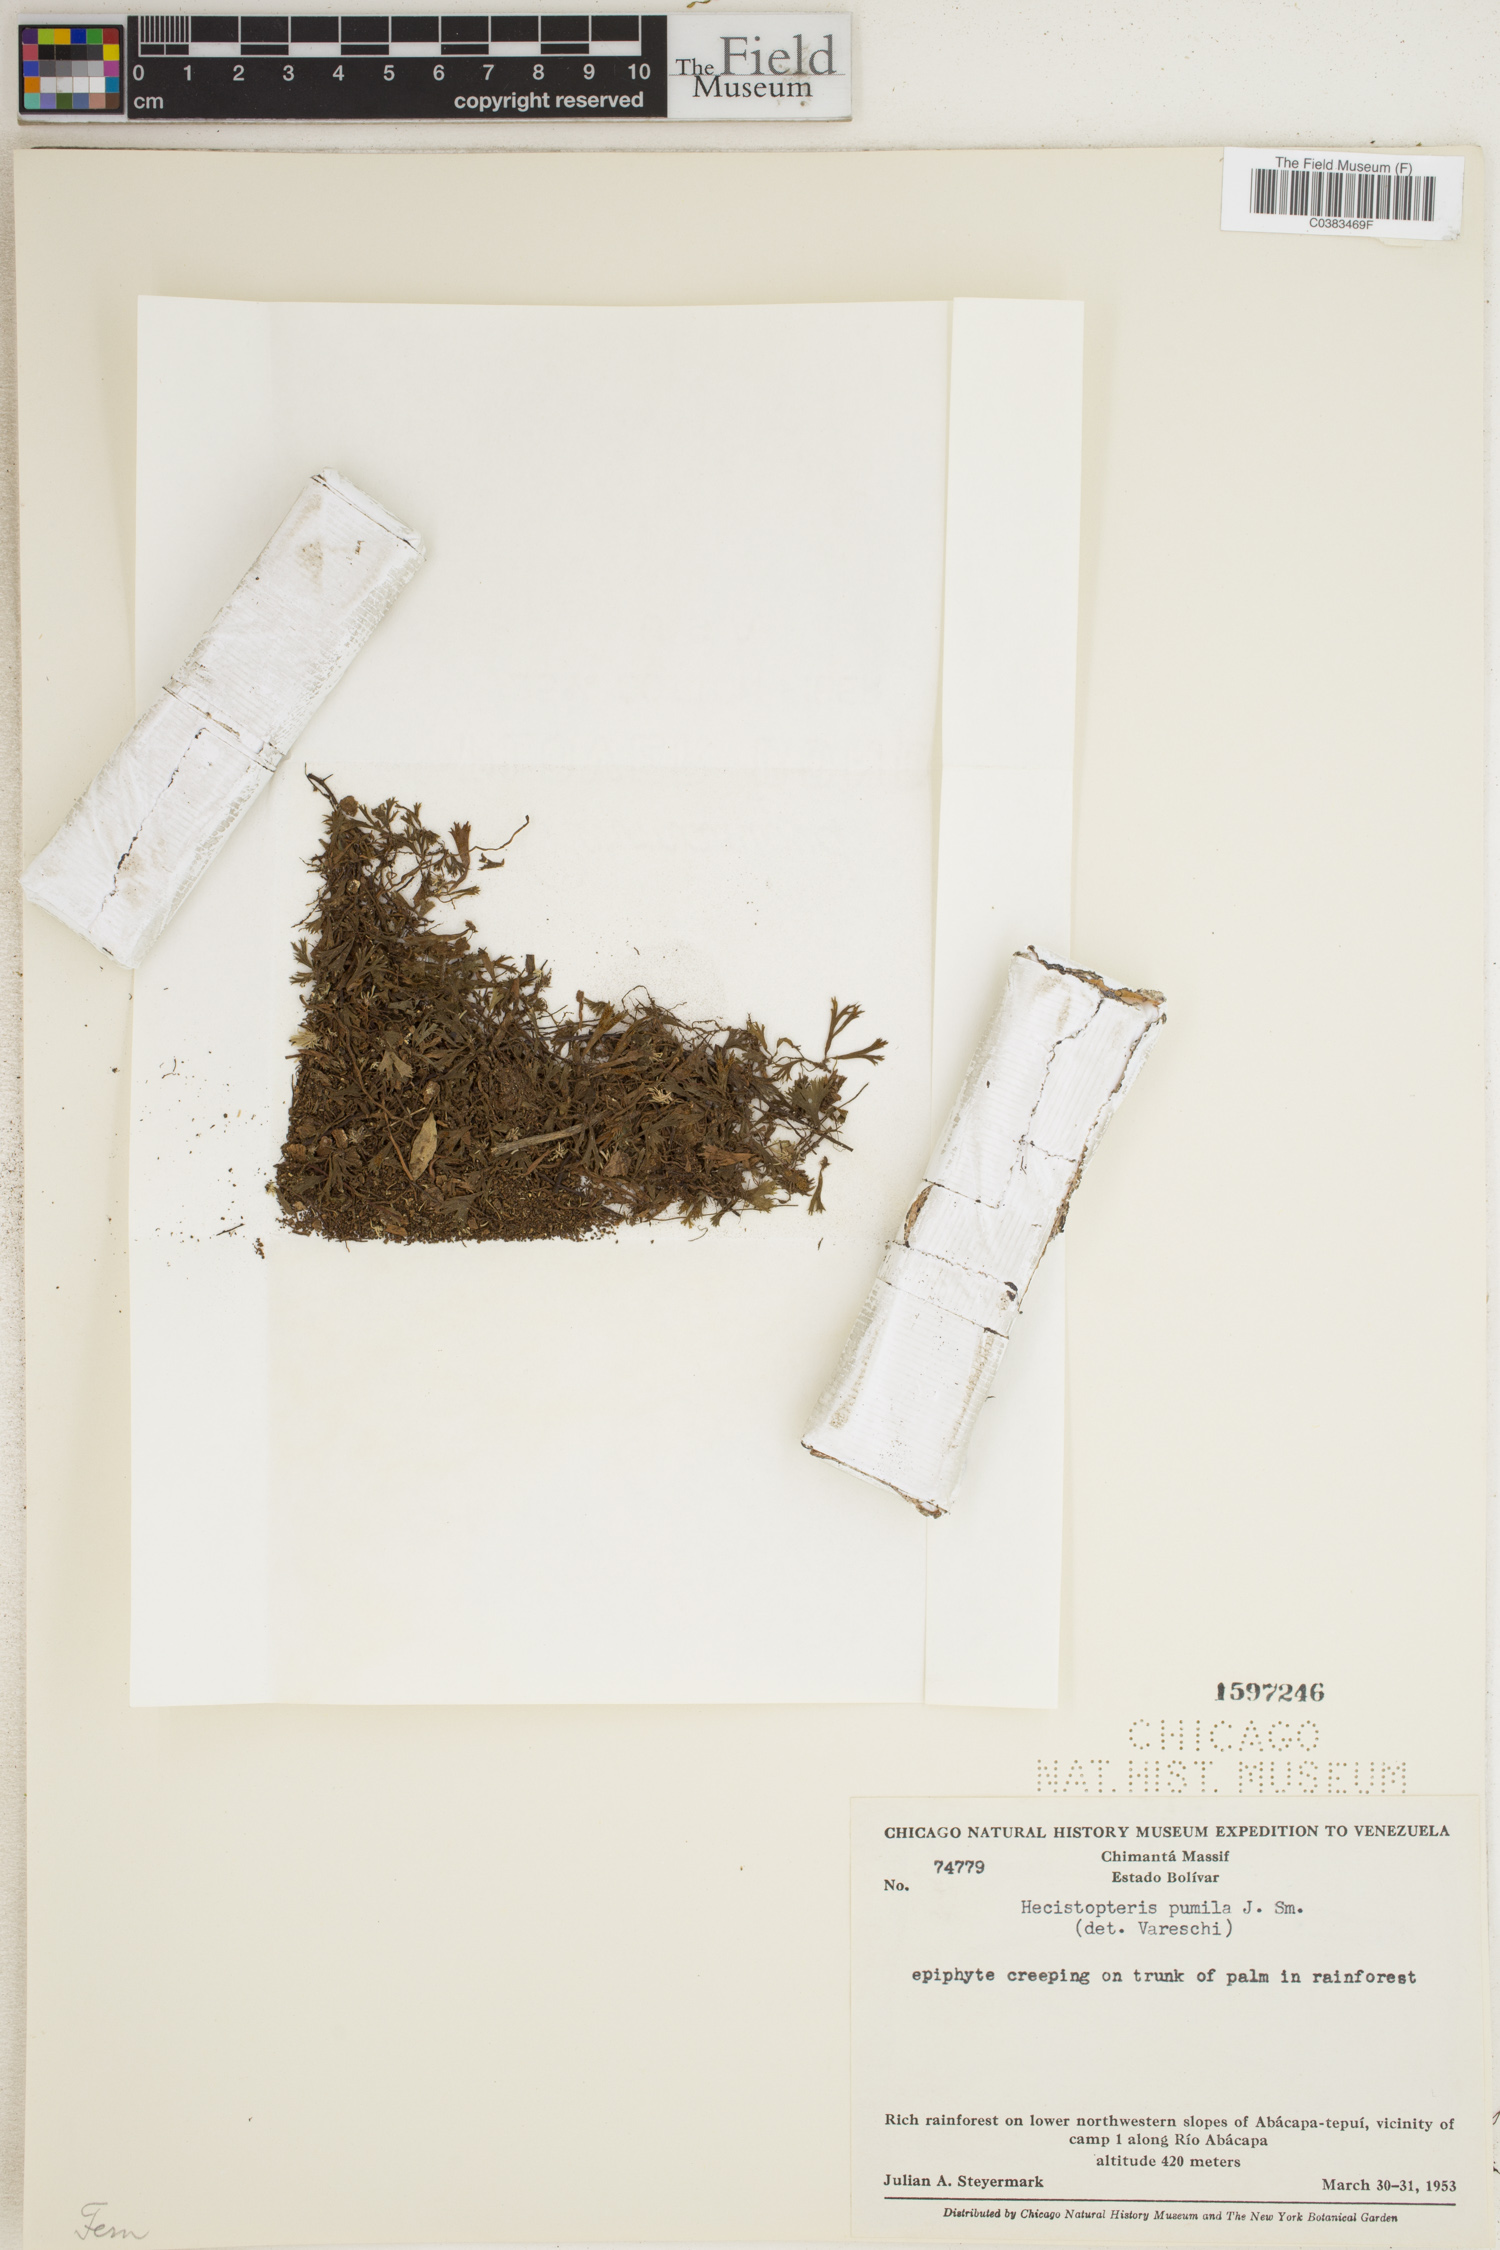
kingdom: Plantae
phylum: Tracheophyta
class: Polypodiopsida
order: Polypodiales
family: Pteridaceae
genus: Hecistopteris
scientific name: Hecistopteris pumila
